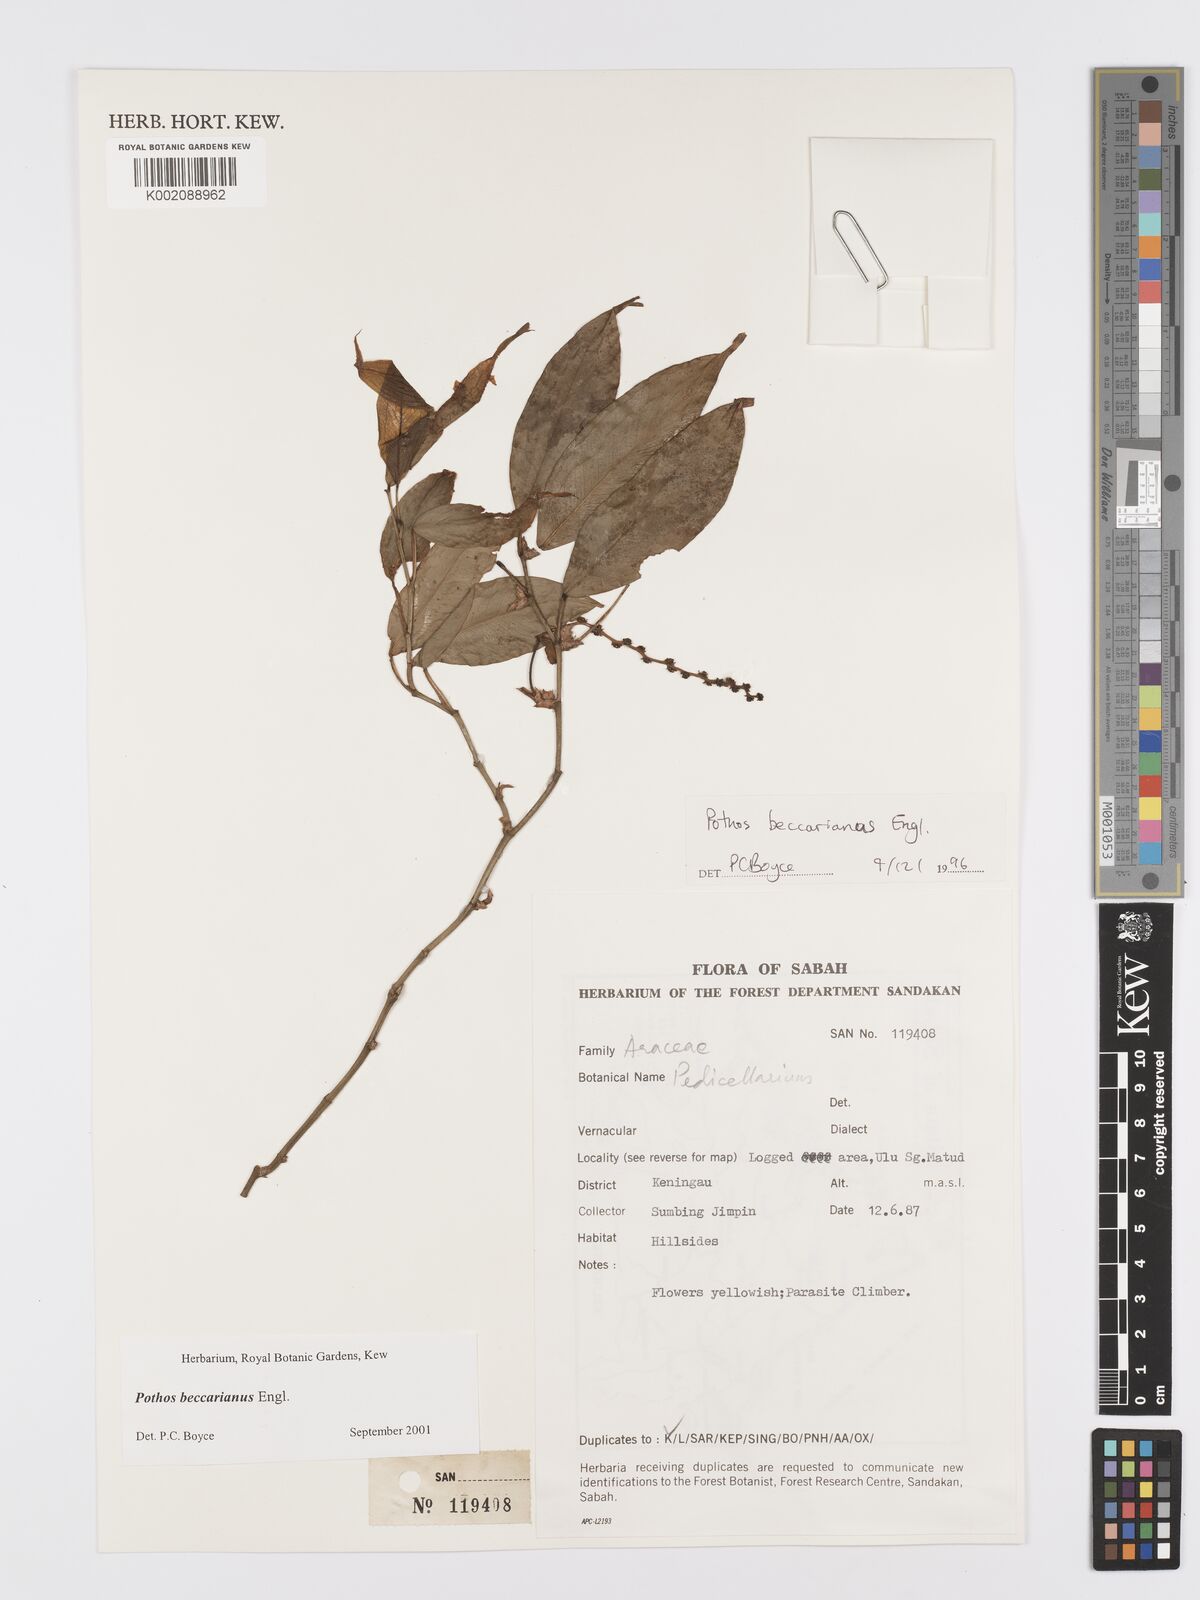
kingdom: Plantae
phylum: Tracheophyta
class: Liliopsida
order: Alismatales
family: Araceae
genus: Pothos
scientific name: Pothos beccarianus
